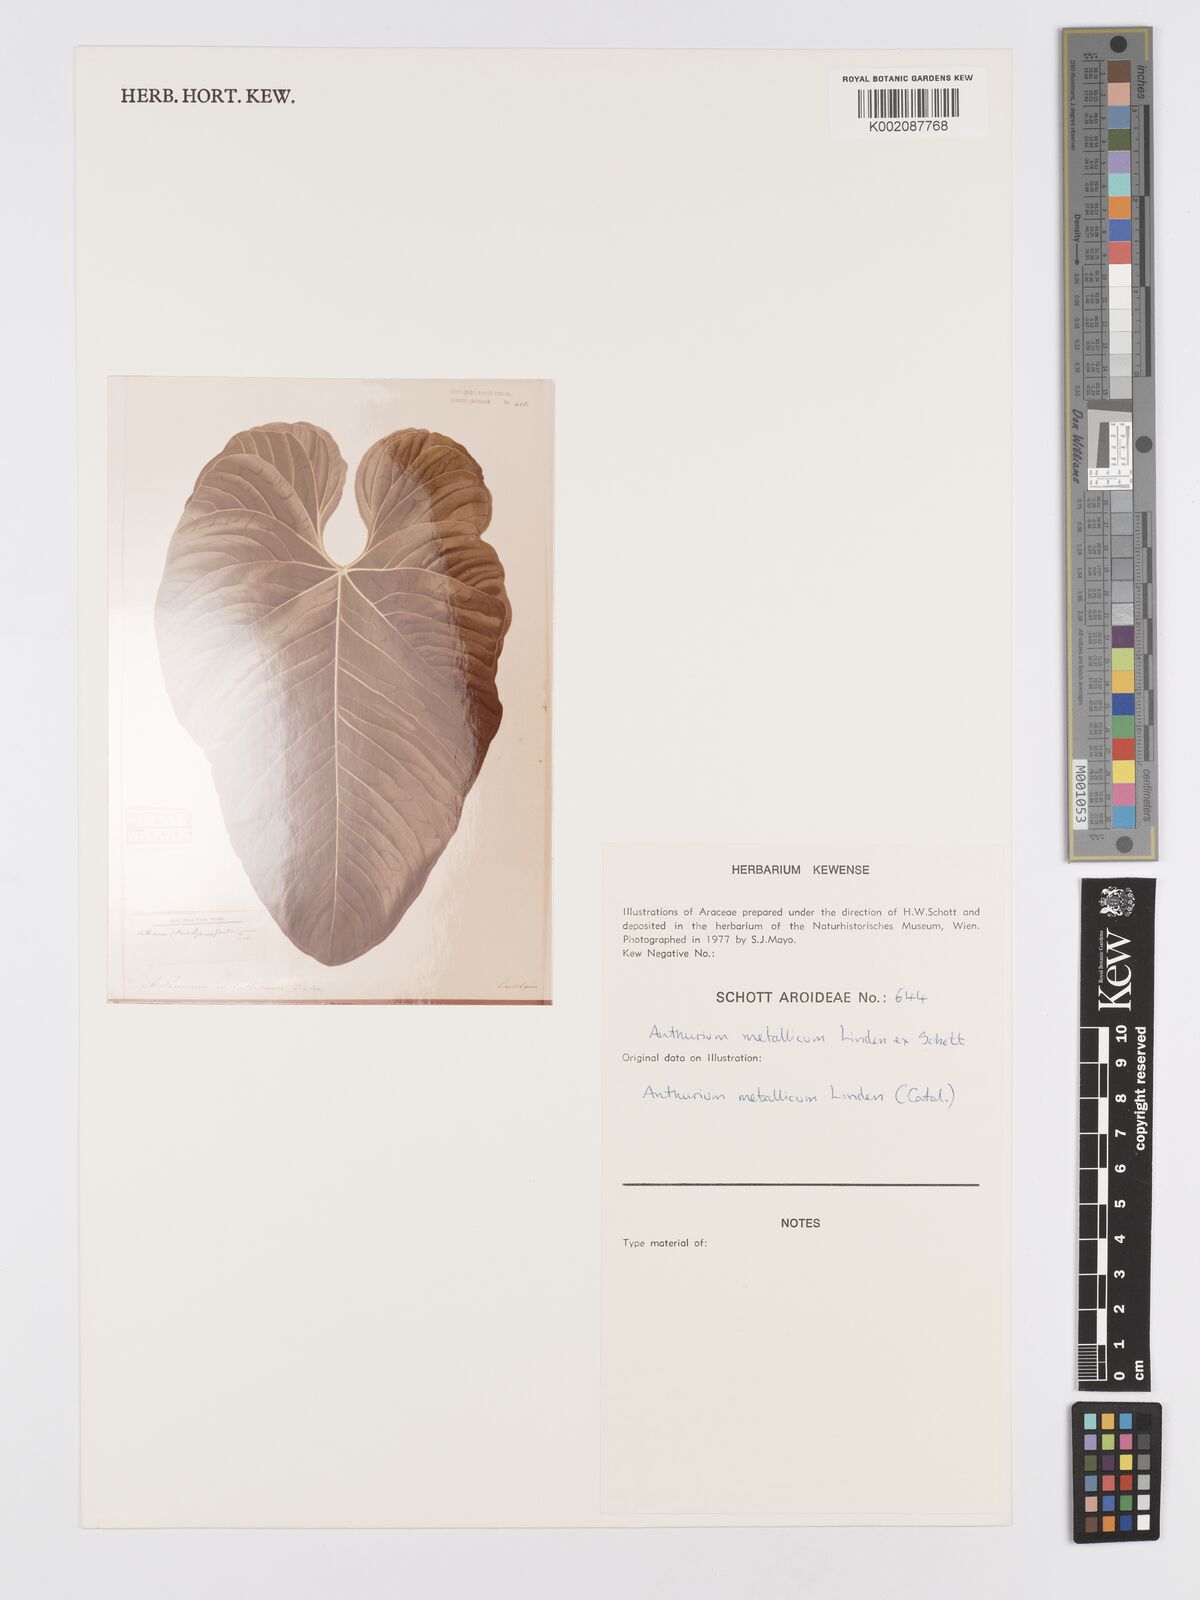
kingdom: Plantae
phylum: Tracheophyta
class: Liliopsida
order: Alismatales
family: Araceae
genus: Anthurium
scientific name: Anthurium metallicum
